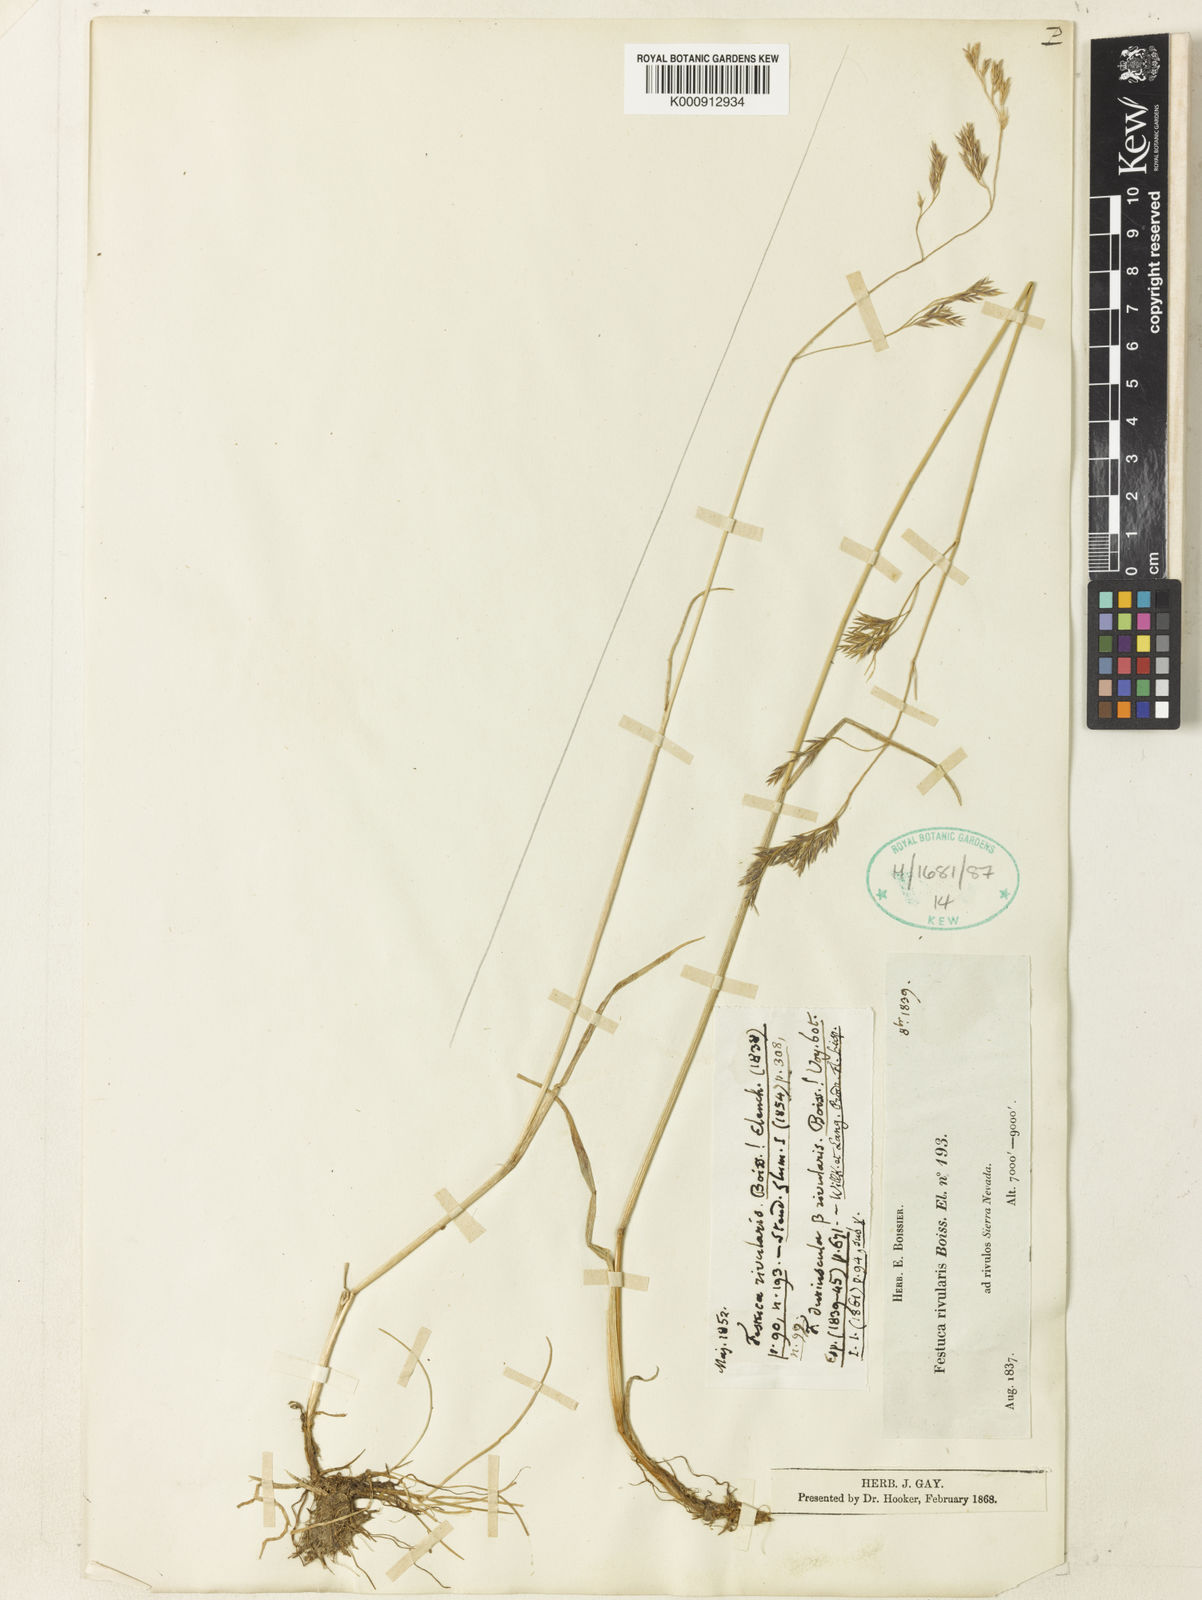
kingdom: Plantae
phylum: Tracheophyta
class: Liliopsida
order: Poales
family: Poaceae
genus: Festuca
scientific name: Festuca rivularis
